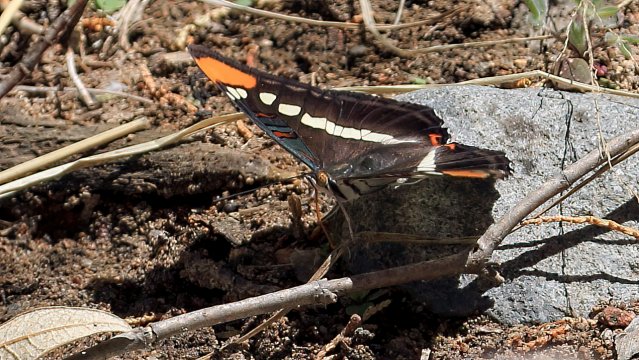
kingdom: Animalia
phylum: Arthropoda
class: Insecta
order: Lepidoptera
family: Nymphalidae
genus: Limenitis
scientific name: Limenitis bredowii
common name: Arizona Sister
